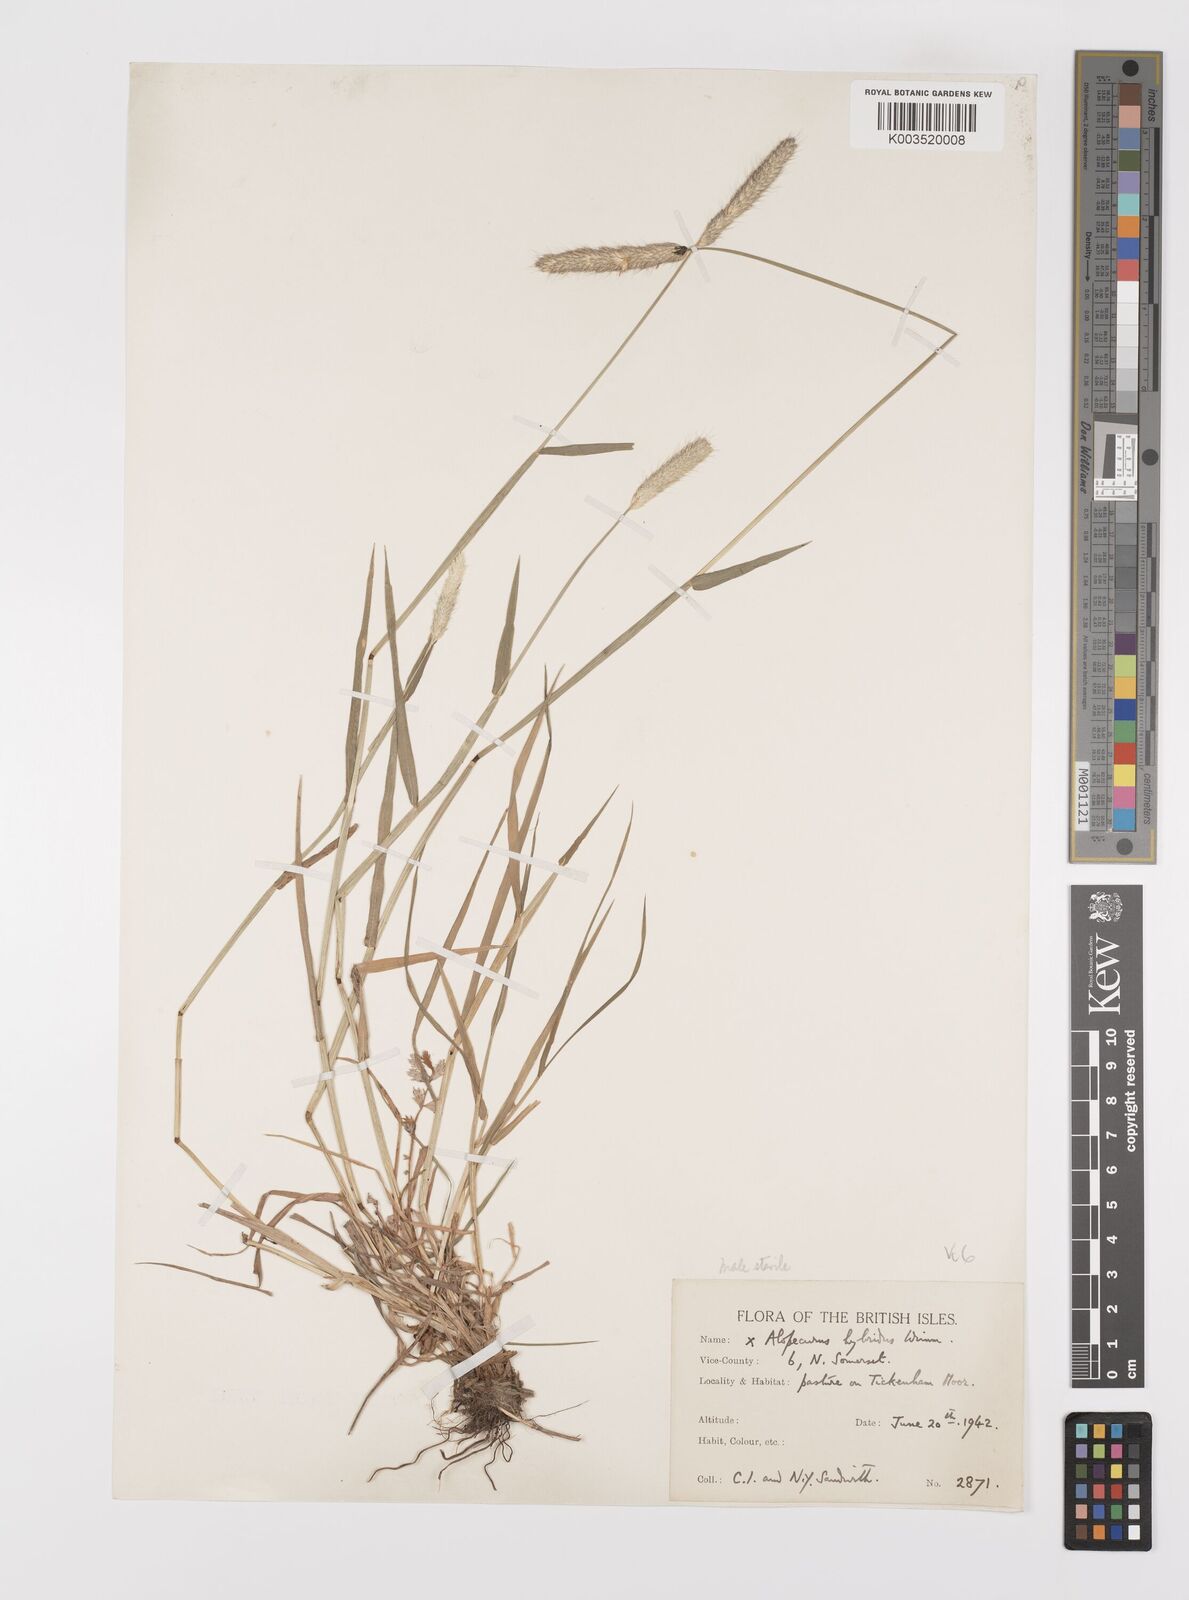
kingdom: Plantae
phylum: Tracheophyta
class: Liliopsida
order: Poales
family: Poaceae
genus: Alopecurus
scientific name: Alopecurus brachystylus
